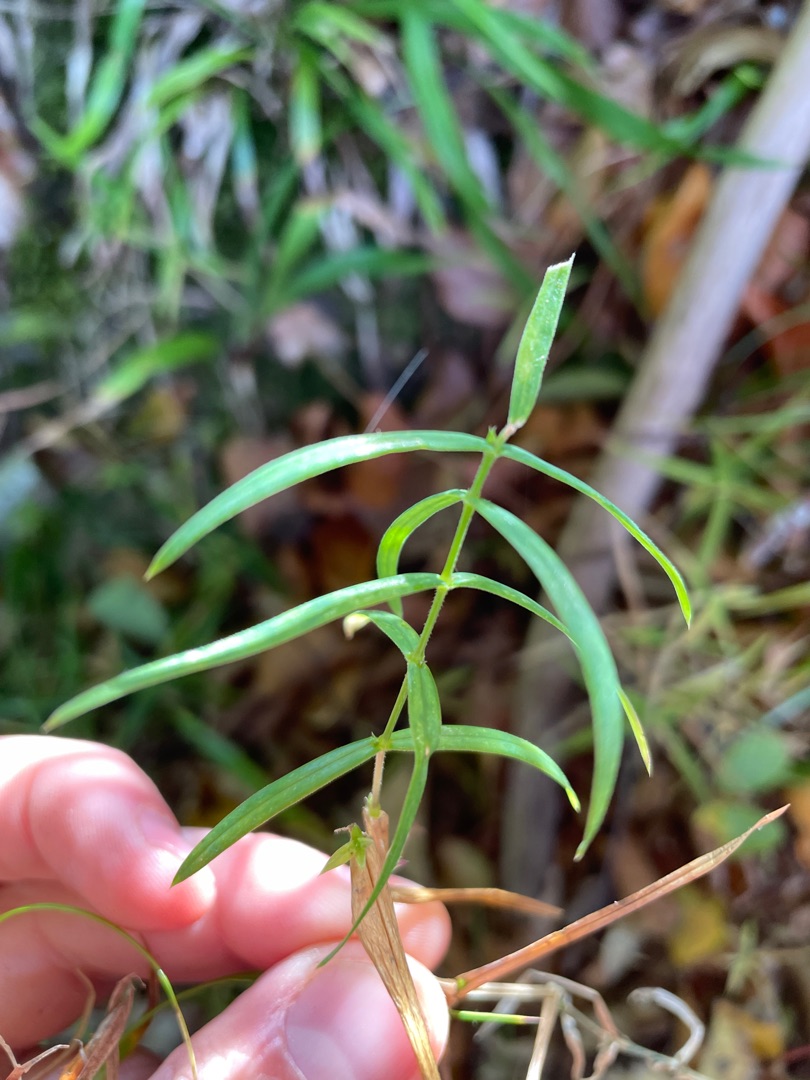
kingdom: Plantae
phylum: Tracheophyta
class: Magnoliopsida
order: Caryophyllales
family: Caryophyllaceae
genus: Rabelera
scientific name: Rabelera holostea
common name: Stor fladstjerne
